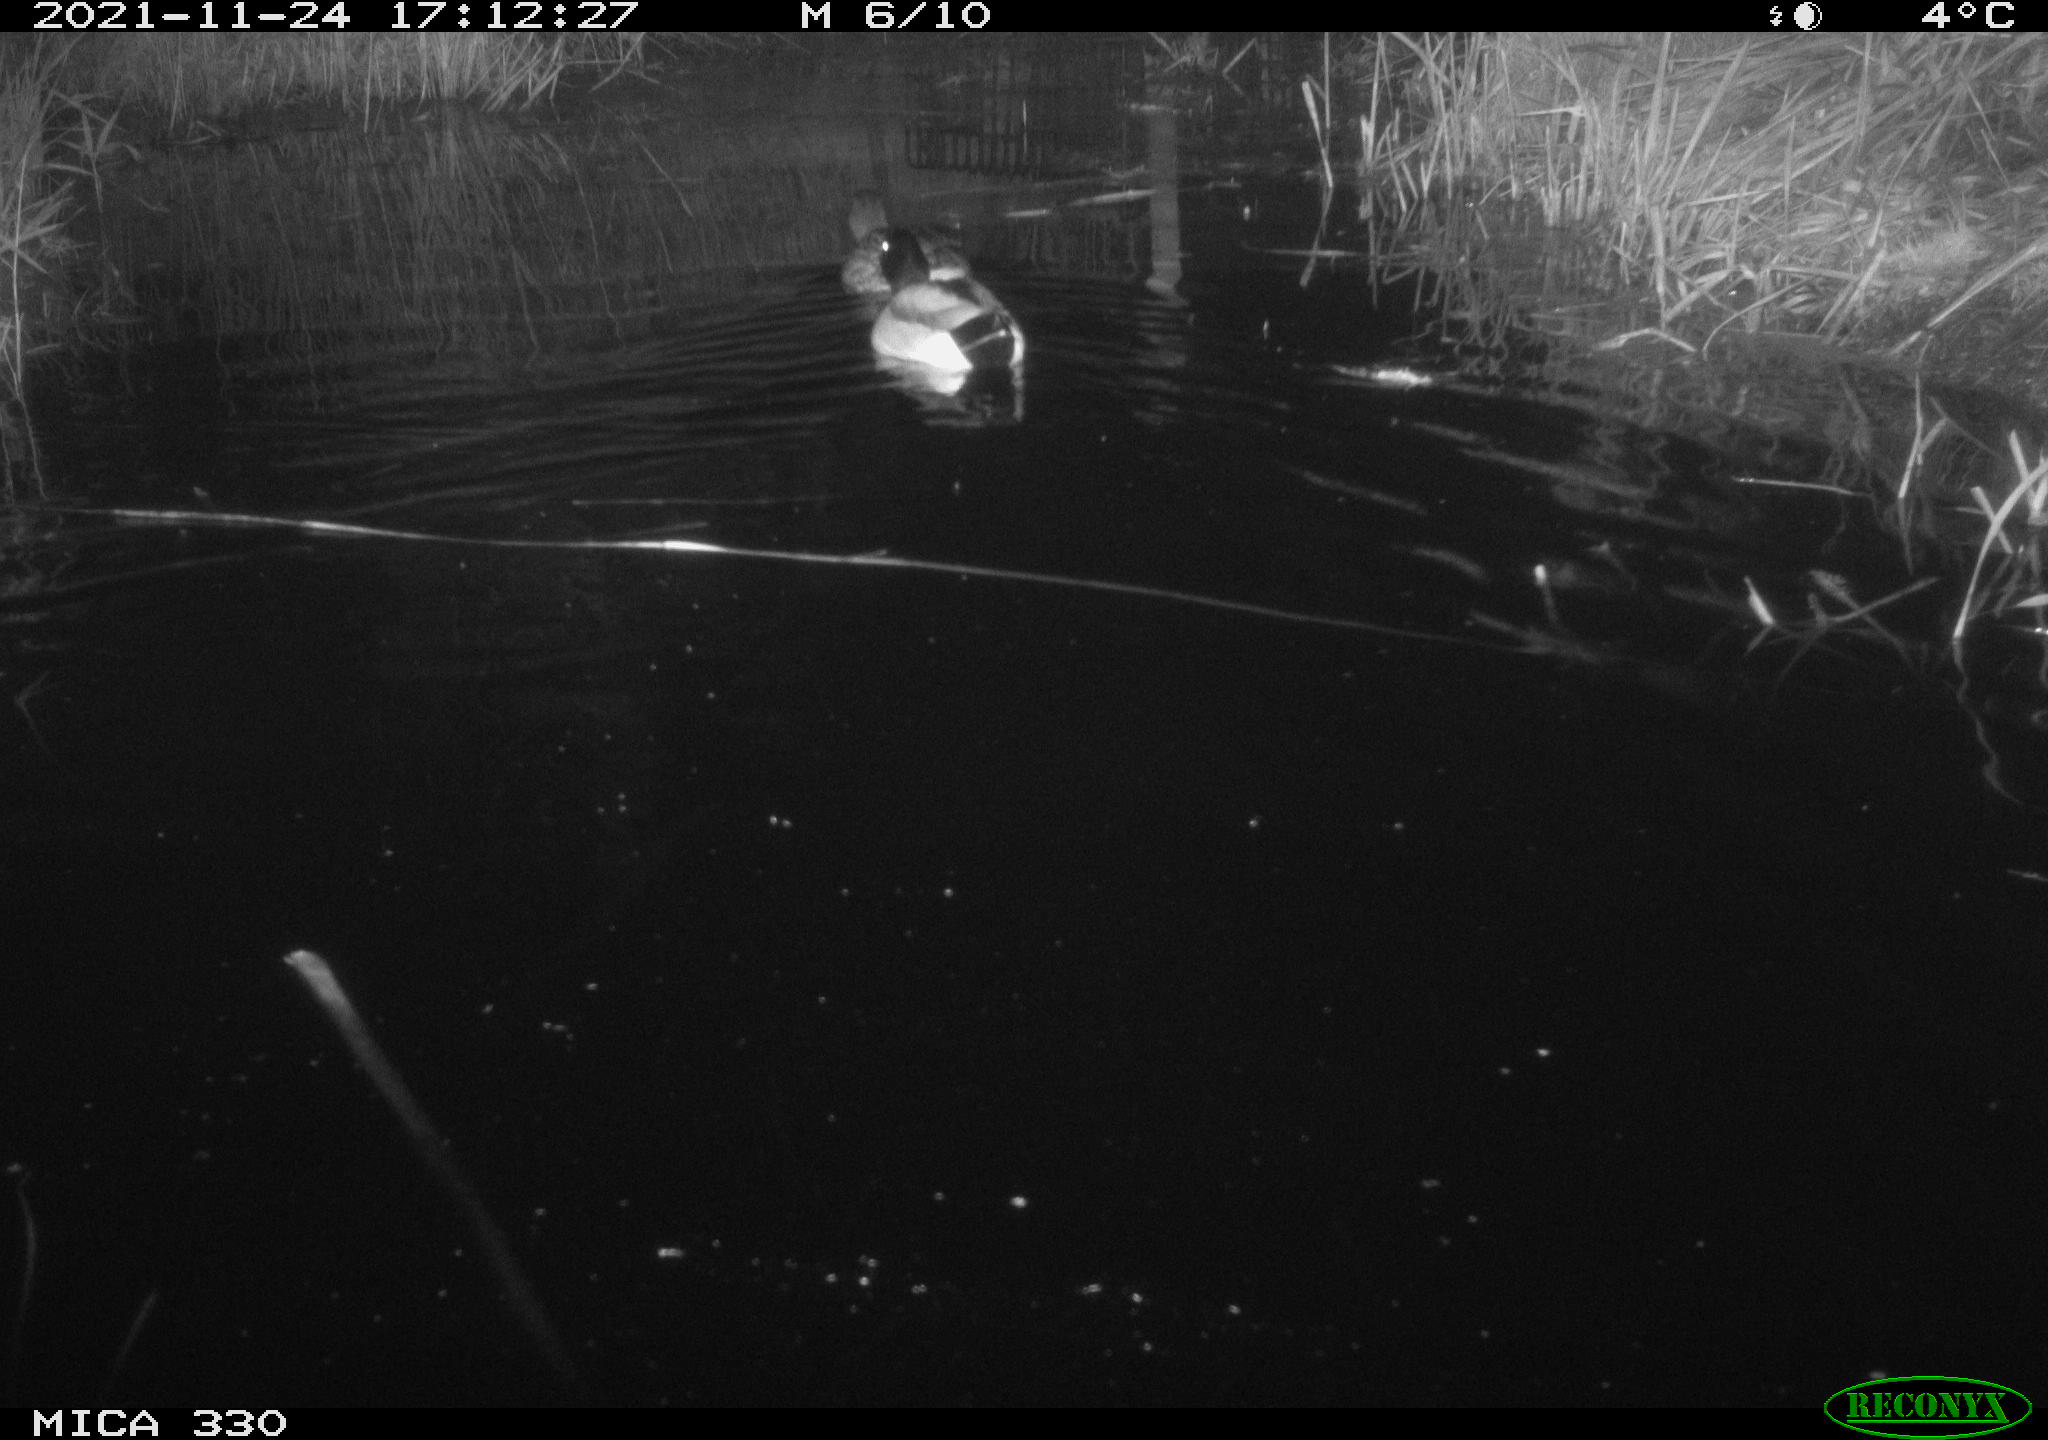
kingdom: Animalia
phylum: Chordata
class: Aves
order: Anseriformes
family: Anatidae
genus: Anas
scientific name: Anas platyrhynchos
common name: Mallard
